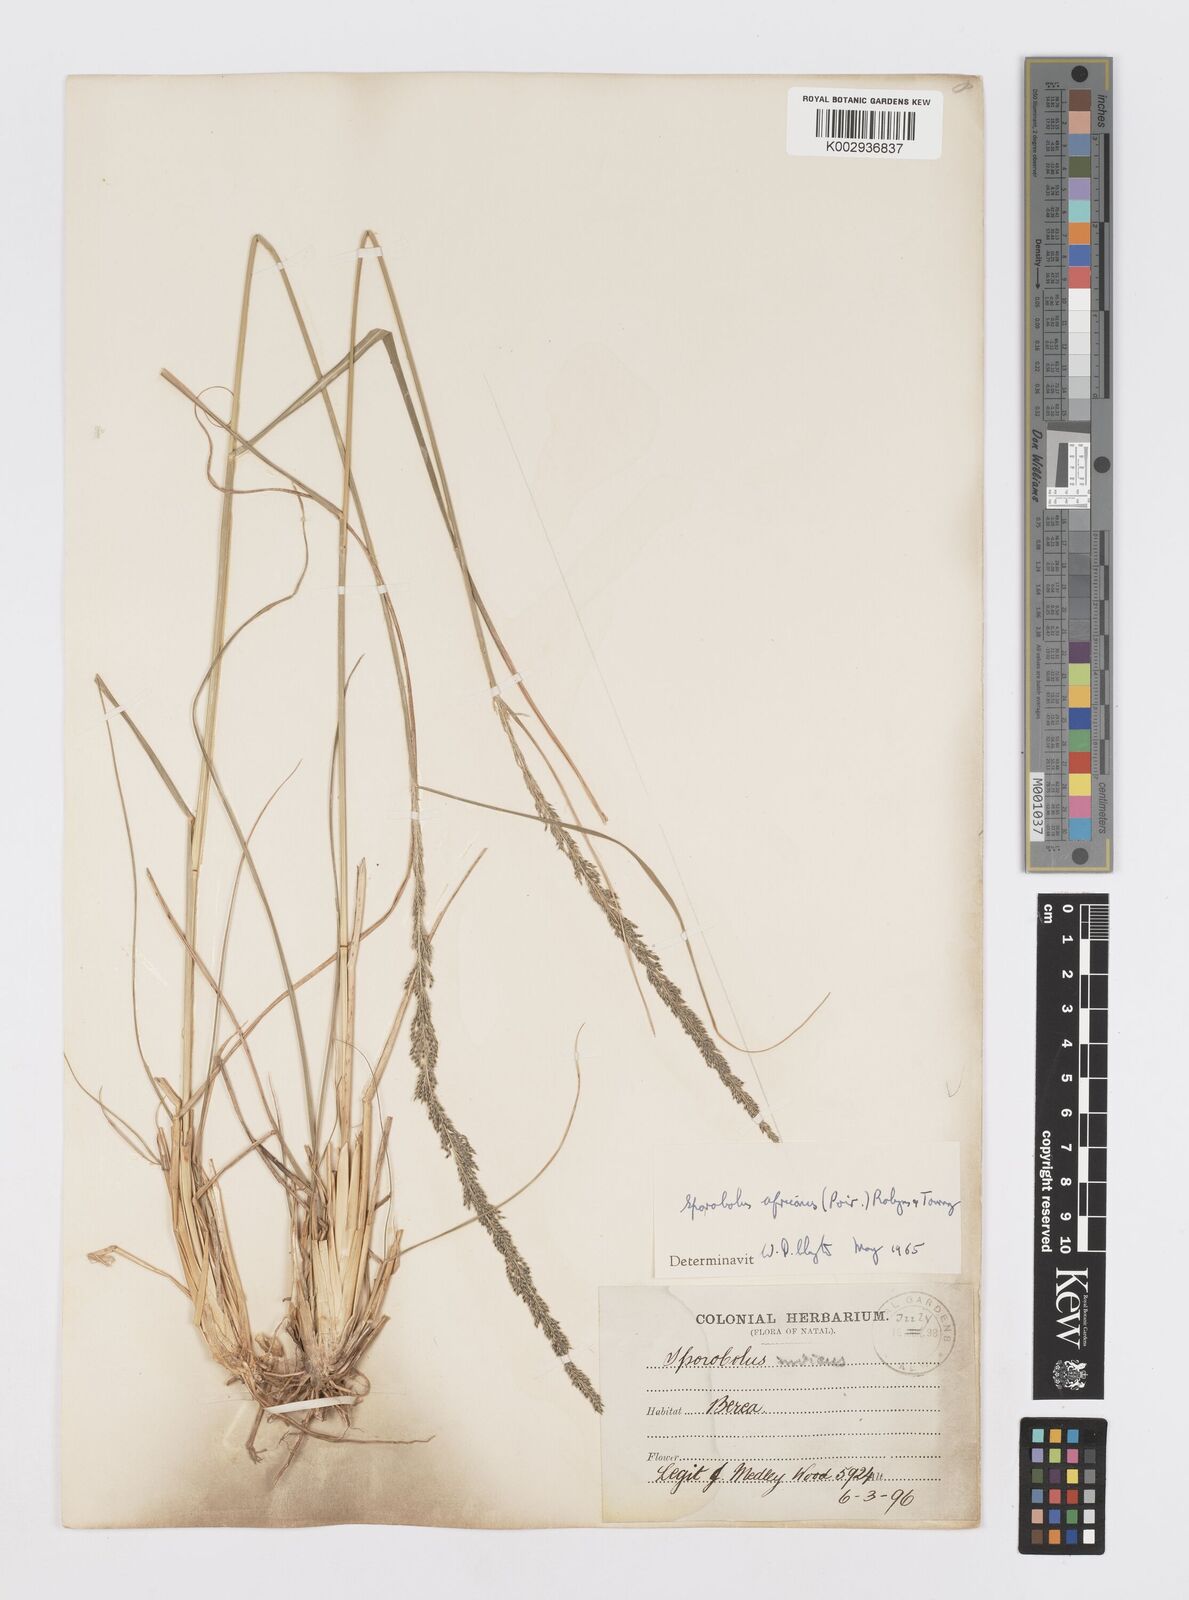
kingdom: Plantae
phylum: Tracheophyta
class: Liliopsida
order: Poales
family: Poaceae
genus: Sporobolus
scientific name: Sporobolus africanus
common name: African dropseed
